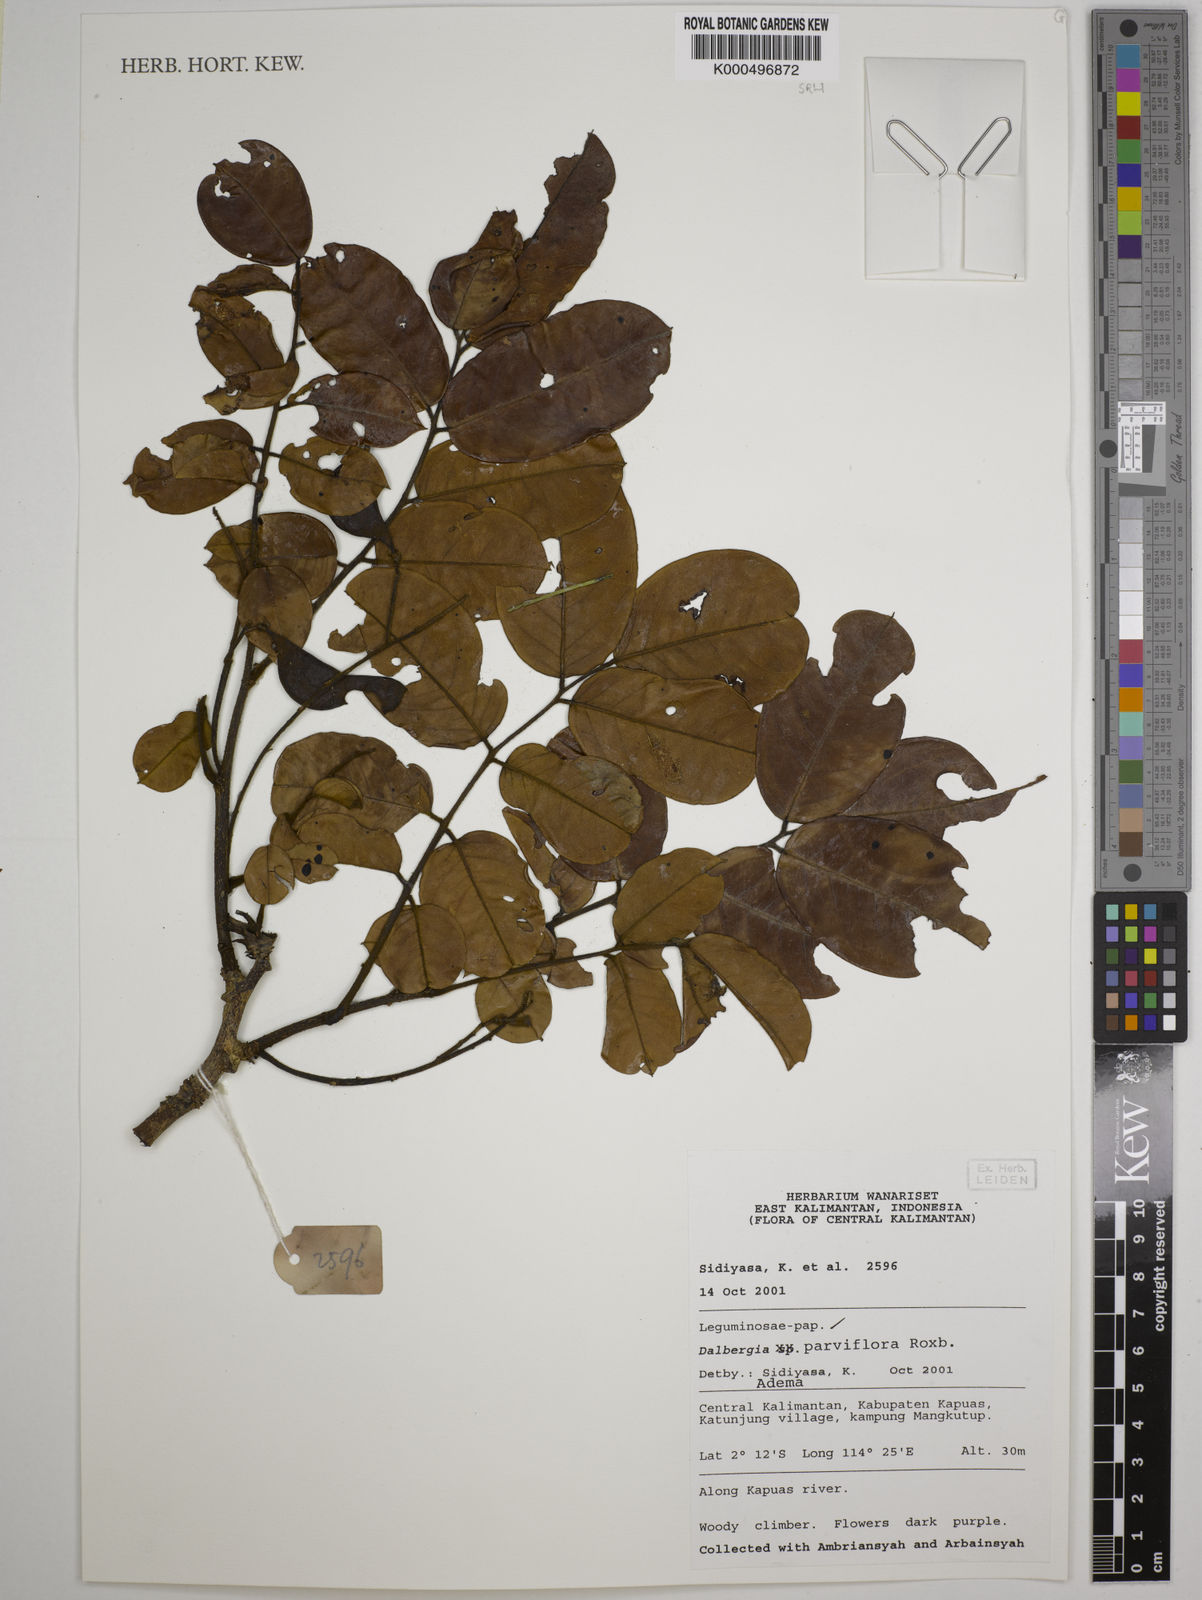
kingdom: Plantae
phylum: Tracheophyta
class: Magnoliopsida
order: Fabales
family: Fabaceae
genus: Dalbergia
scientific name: Dalbergia parviflora
